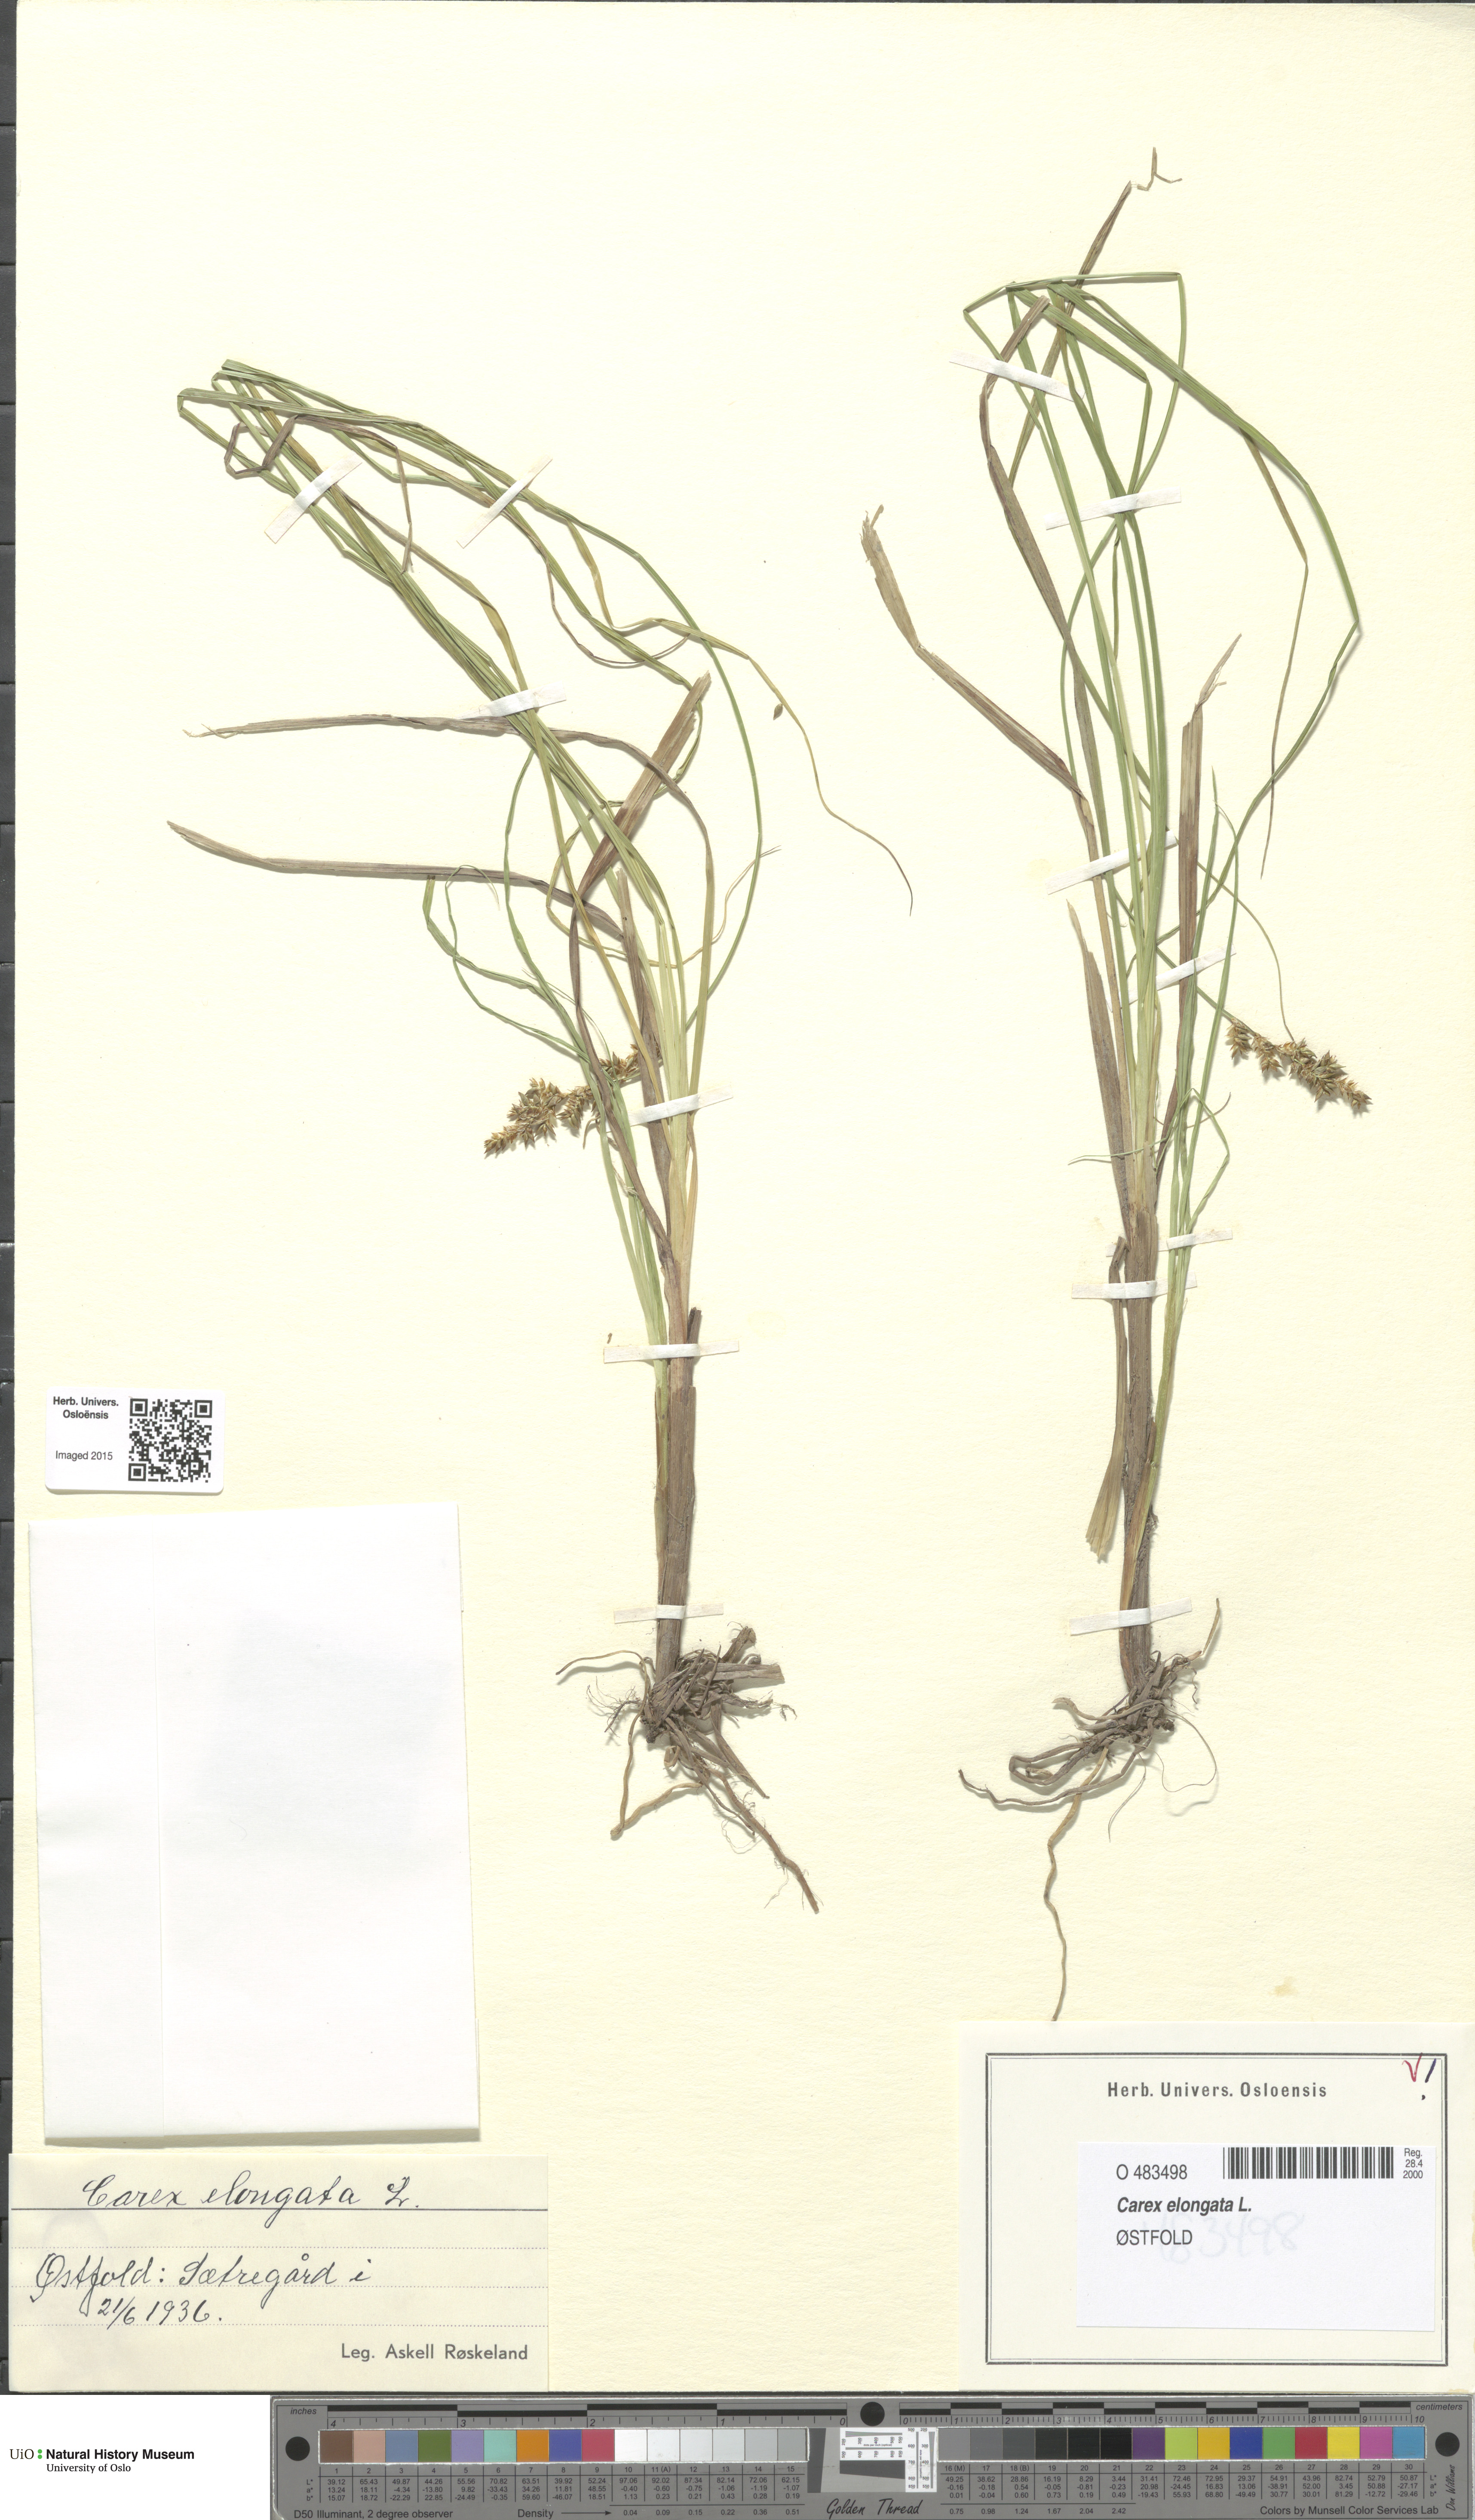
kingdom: Plantae
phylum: Tracheophyta
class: Liliopsida
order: Poales
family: Cyperaceae
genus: Carex
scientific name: Carex elongata
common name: Elongated sedge
